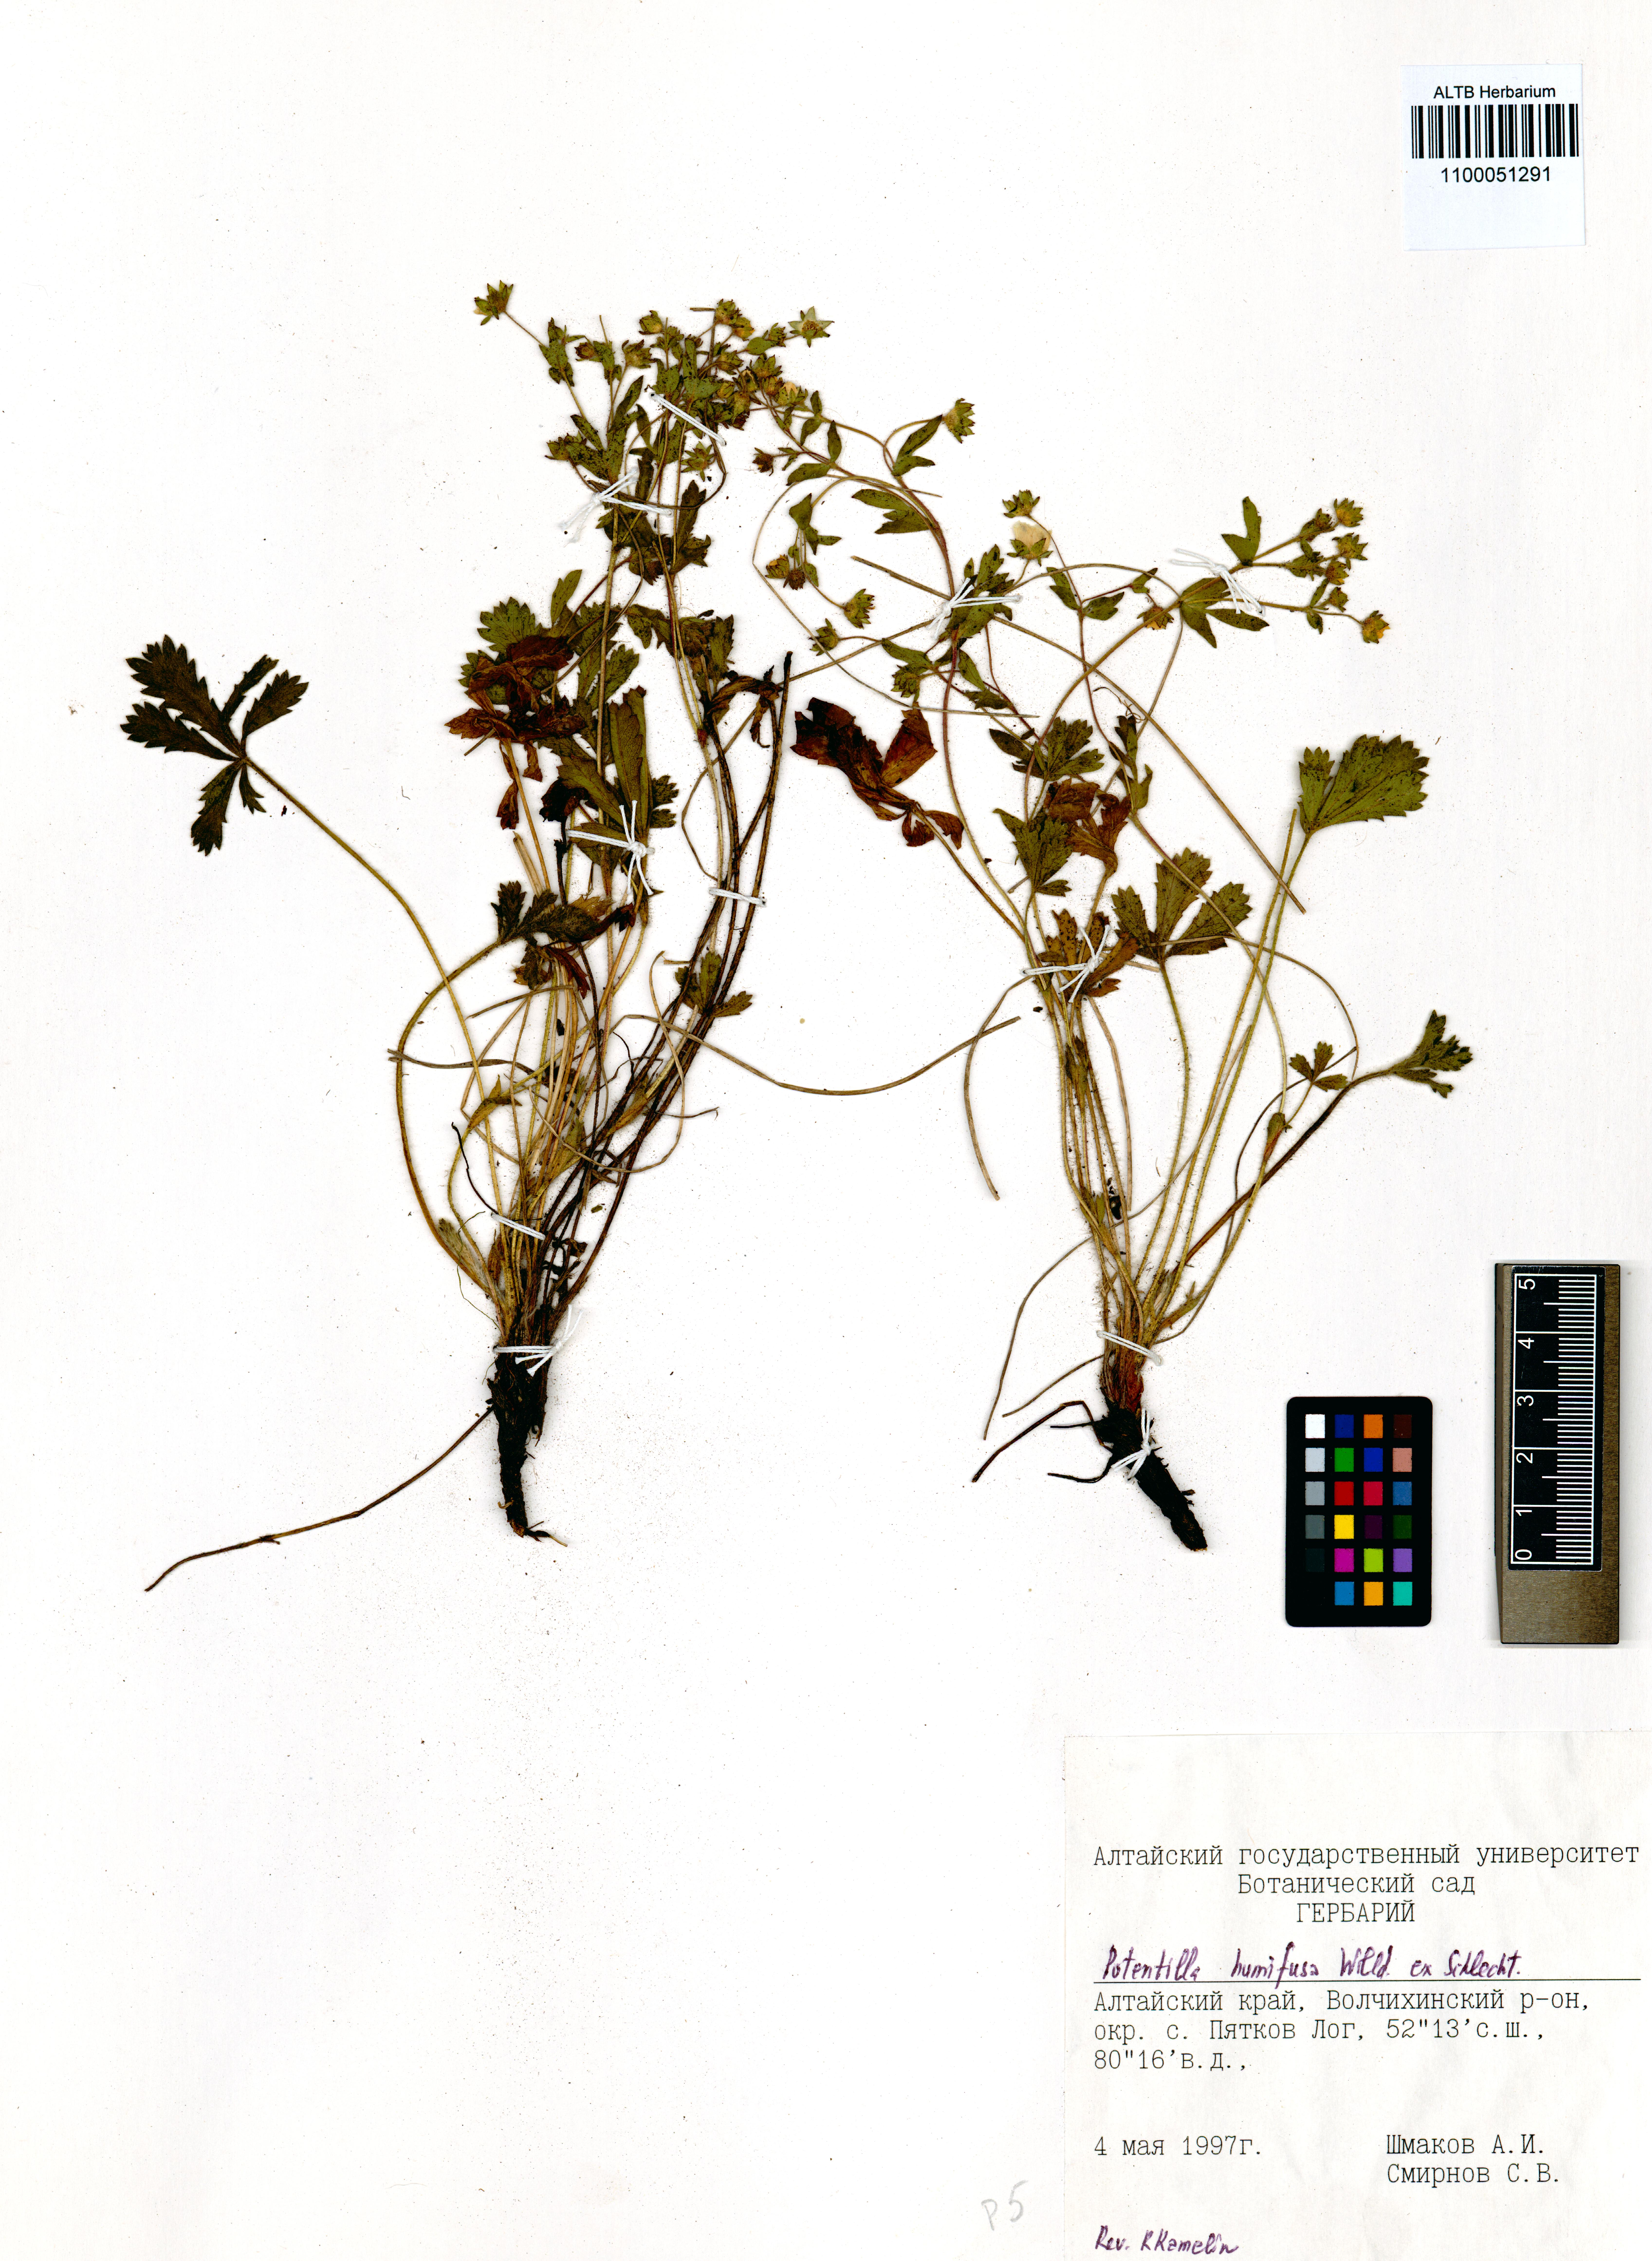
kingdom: Plantae
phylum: Tracheophyta
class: Magnoliopsida
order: Rosales
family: Rosaceae
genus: Potentilla
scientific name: Potentilla humifusa
